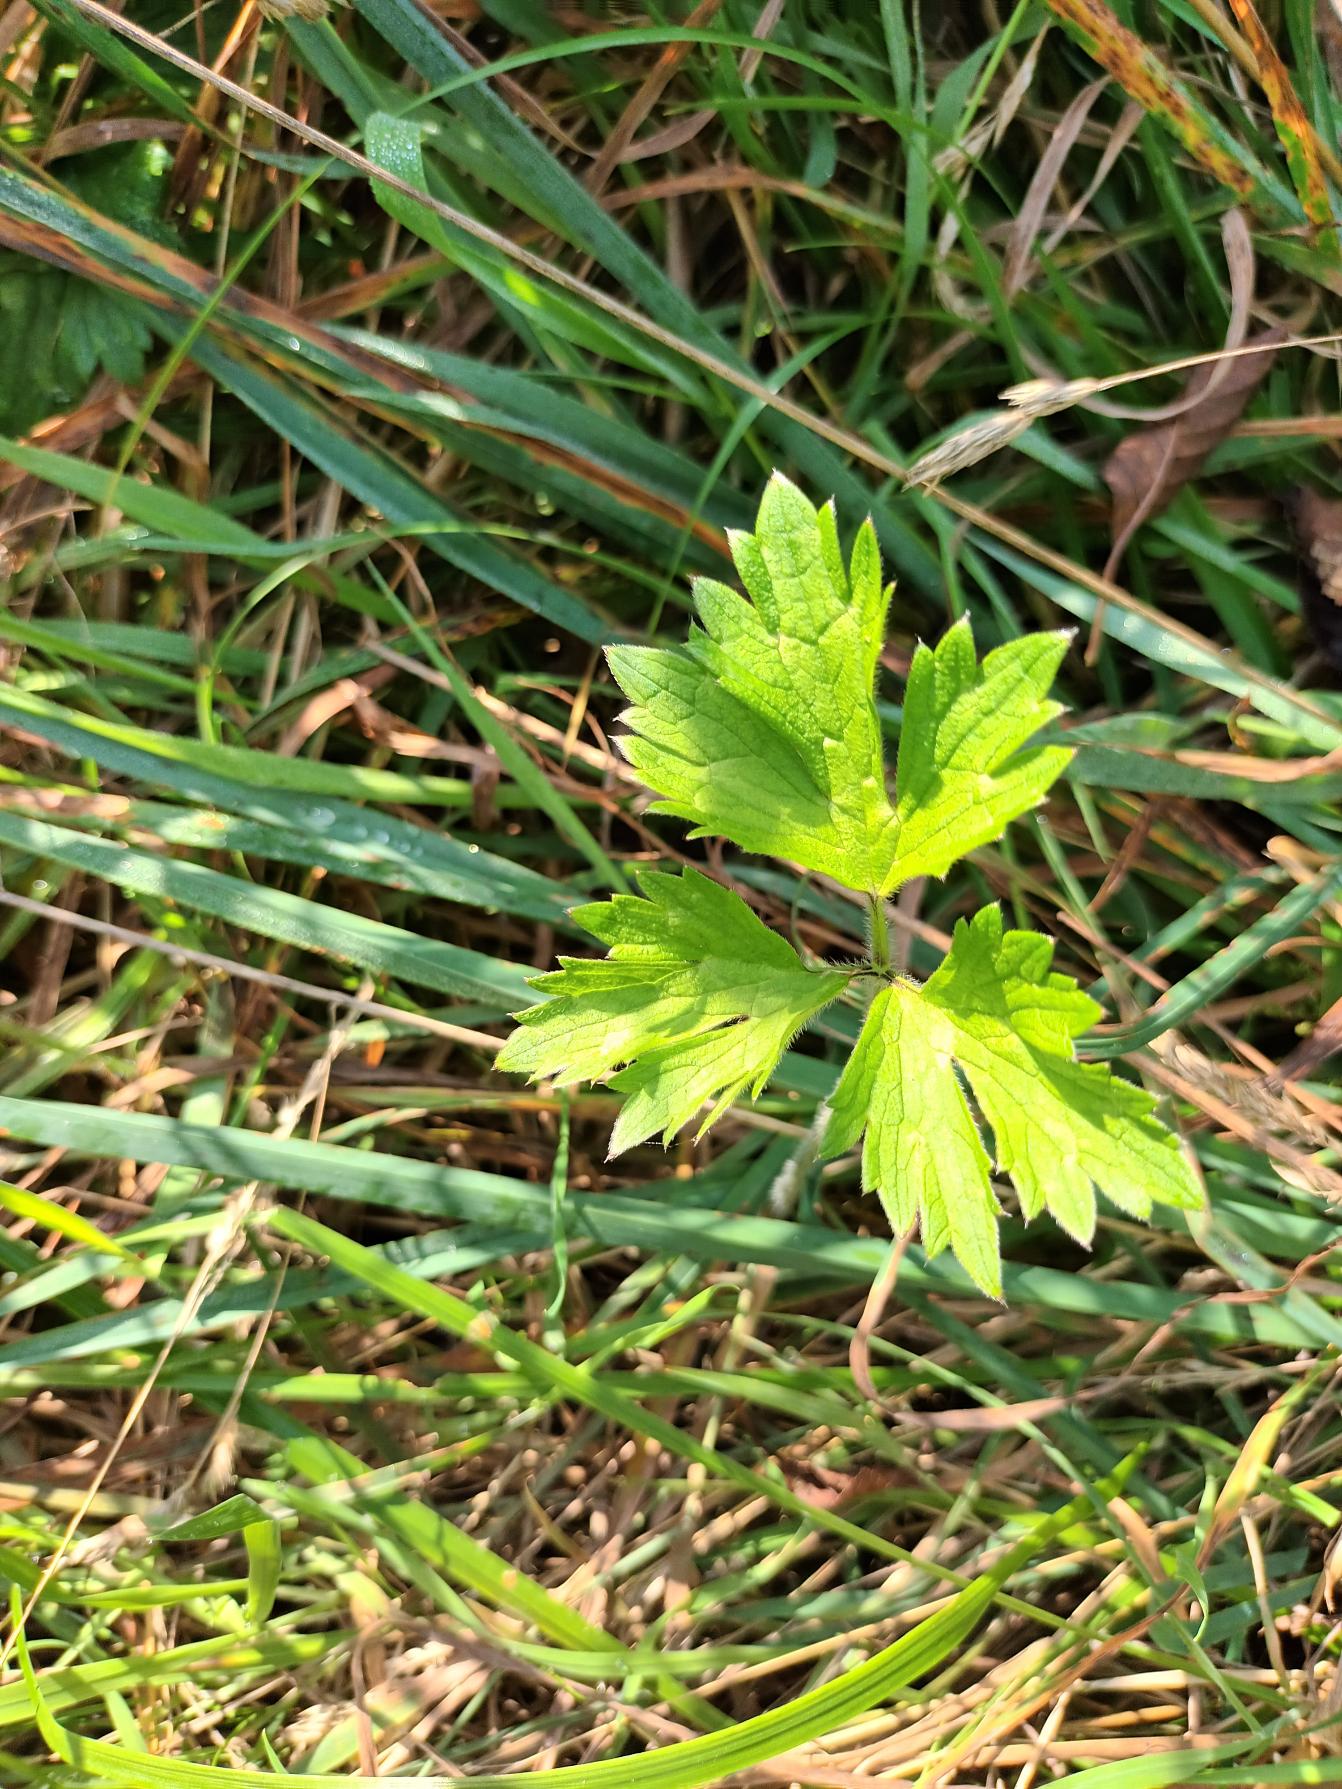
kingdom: Plantae
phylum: Tracheophyta
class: Magnoliopsida
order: Ranunculales
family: Ranunculaceae
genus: Ranunculus
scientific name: Ranunculus repens
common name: Lav ranunkel
